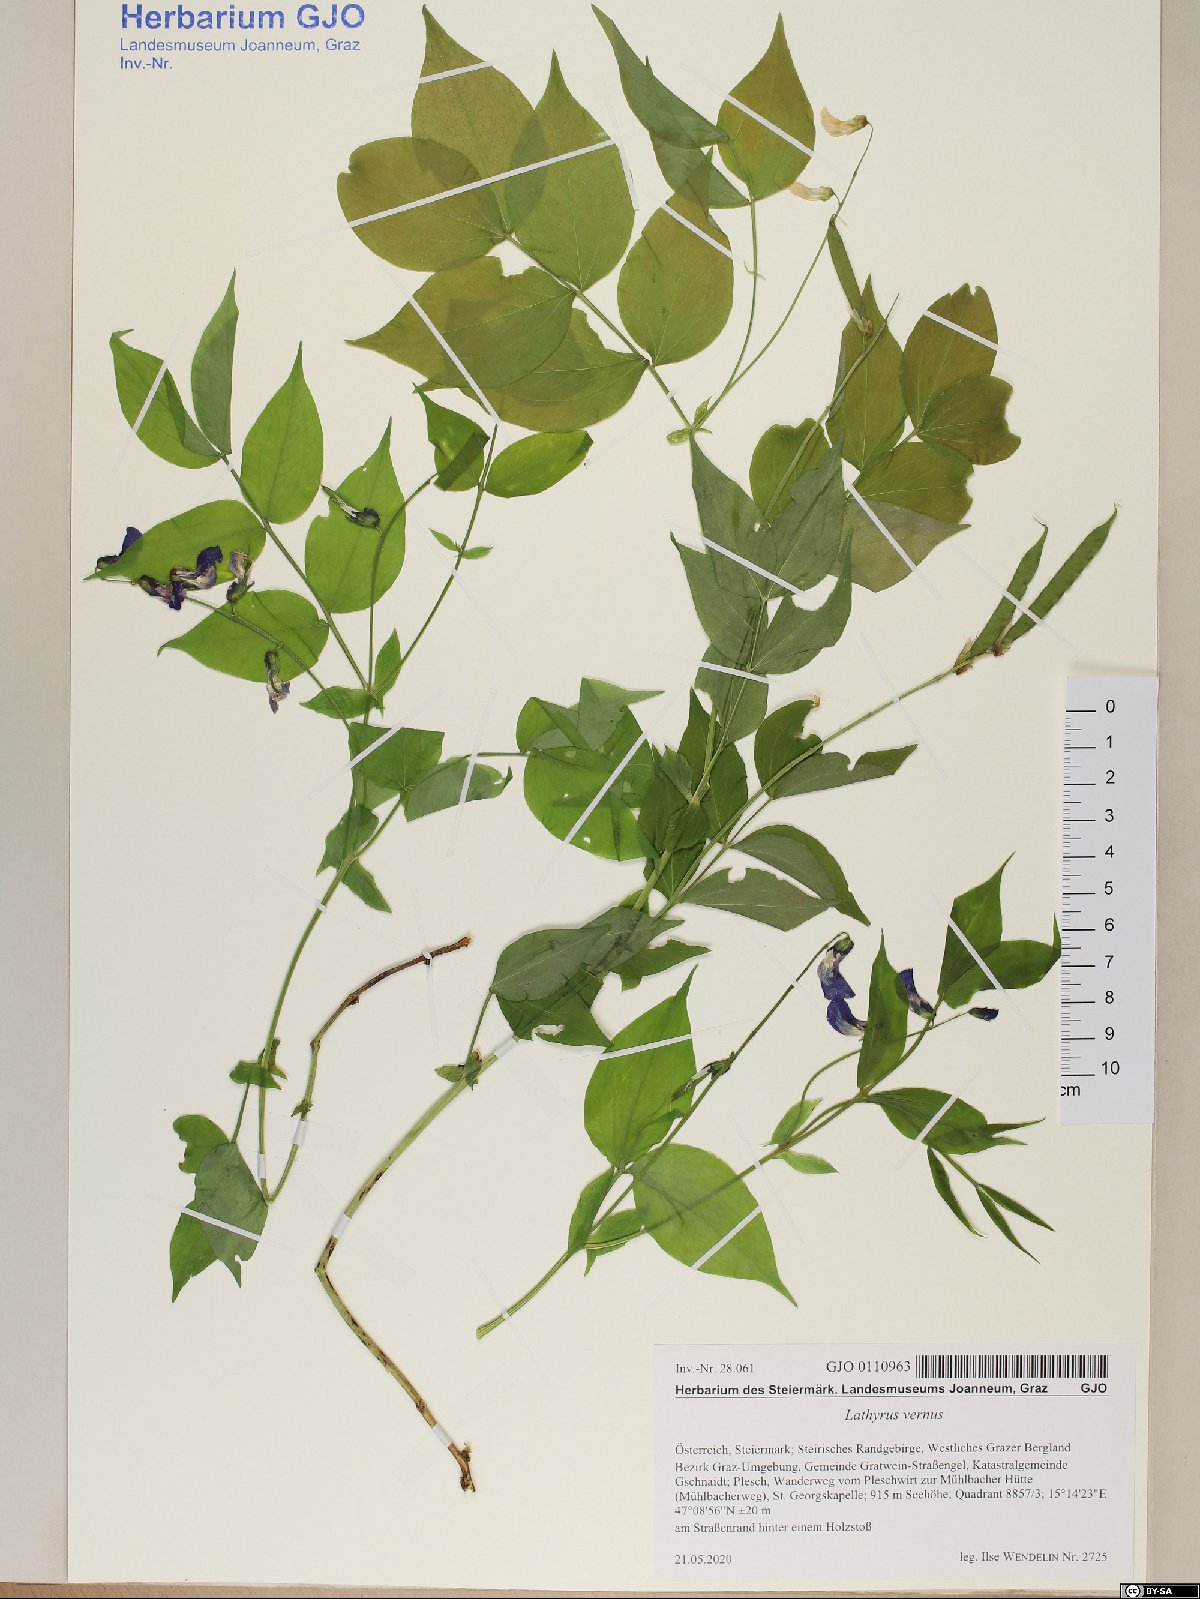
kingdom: Plantae
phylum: Tracheophyta
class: Magnoliopsida
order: Fabales
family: Fabaceae
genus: Lathyrus
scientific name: Lathyrus vernus
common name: Spring pea
